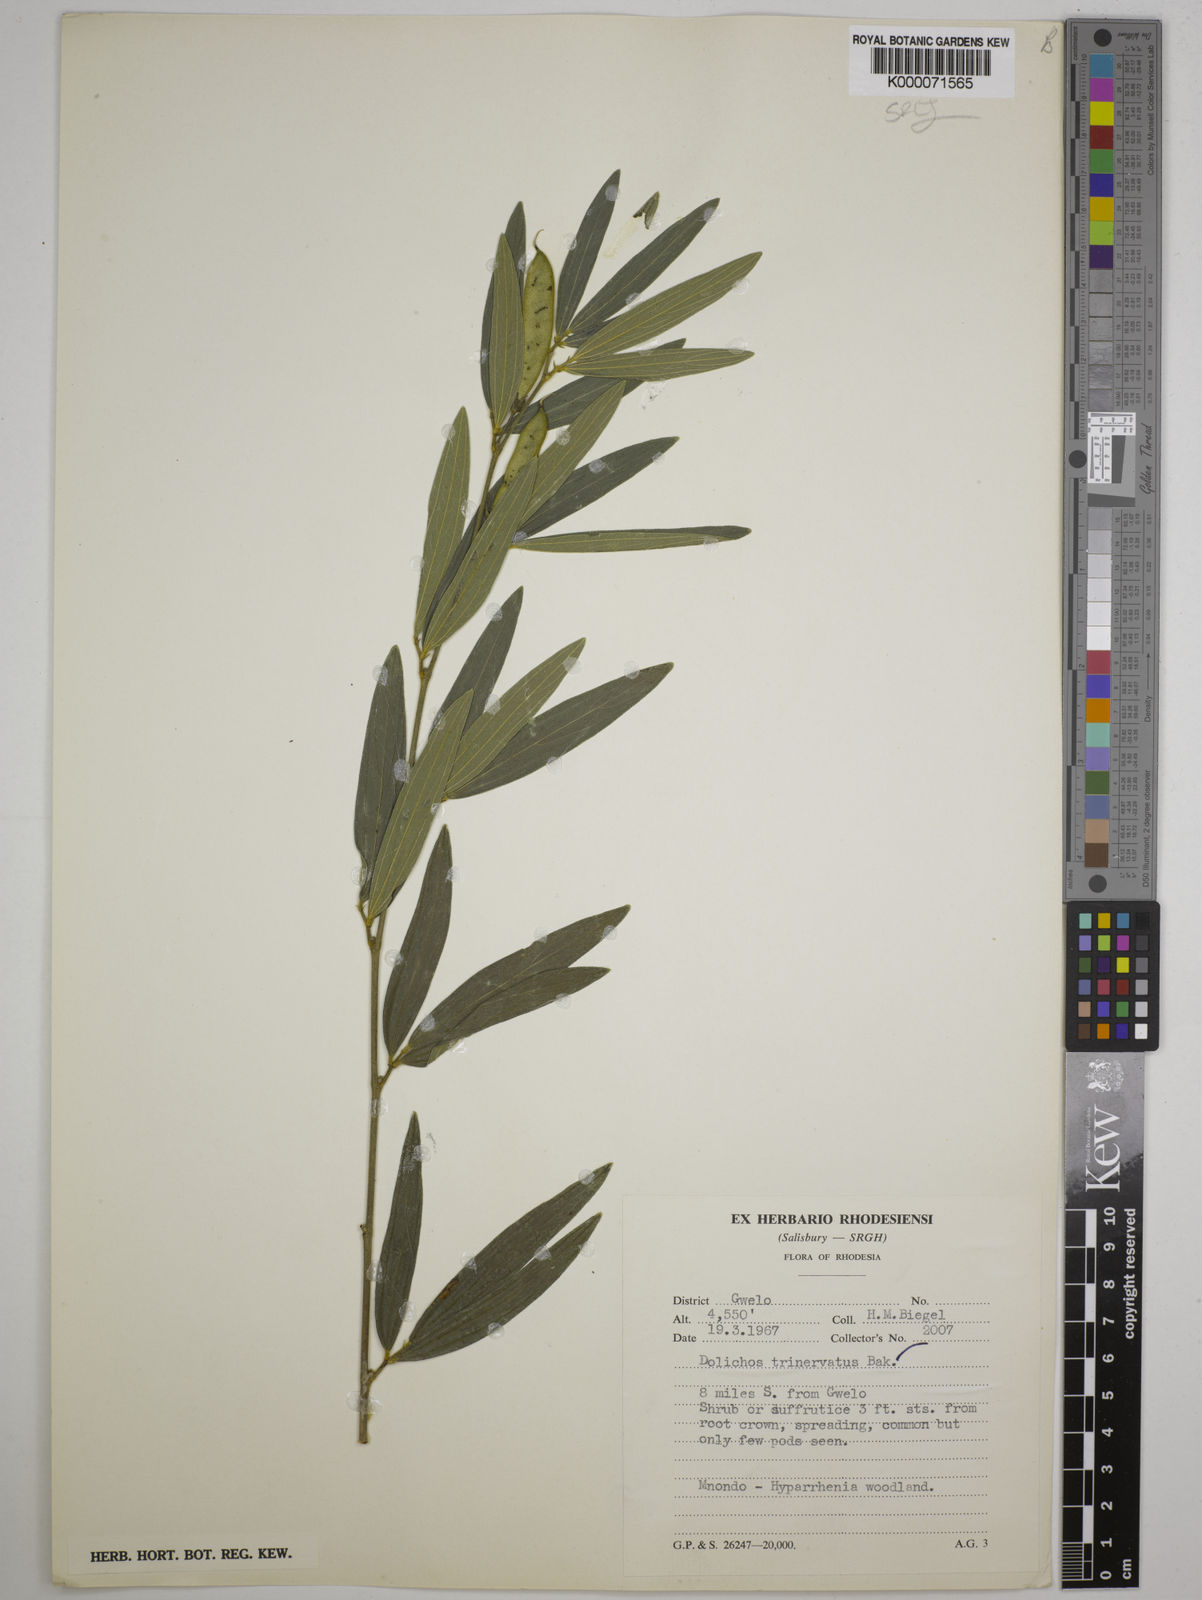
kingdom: Plantae
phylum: Tracheophyta
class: Magnoliopsida
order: Fabales
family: Fabaceae
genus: Dolichos
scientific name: Dolichos trinervatus
